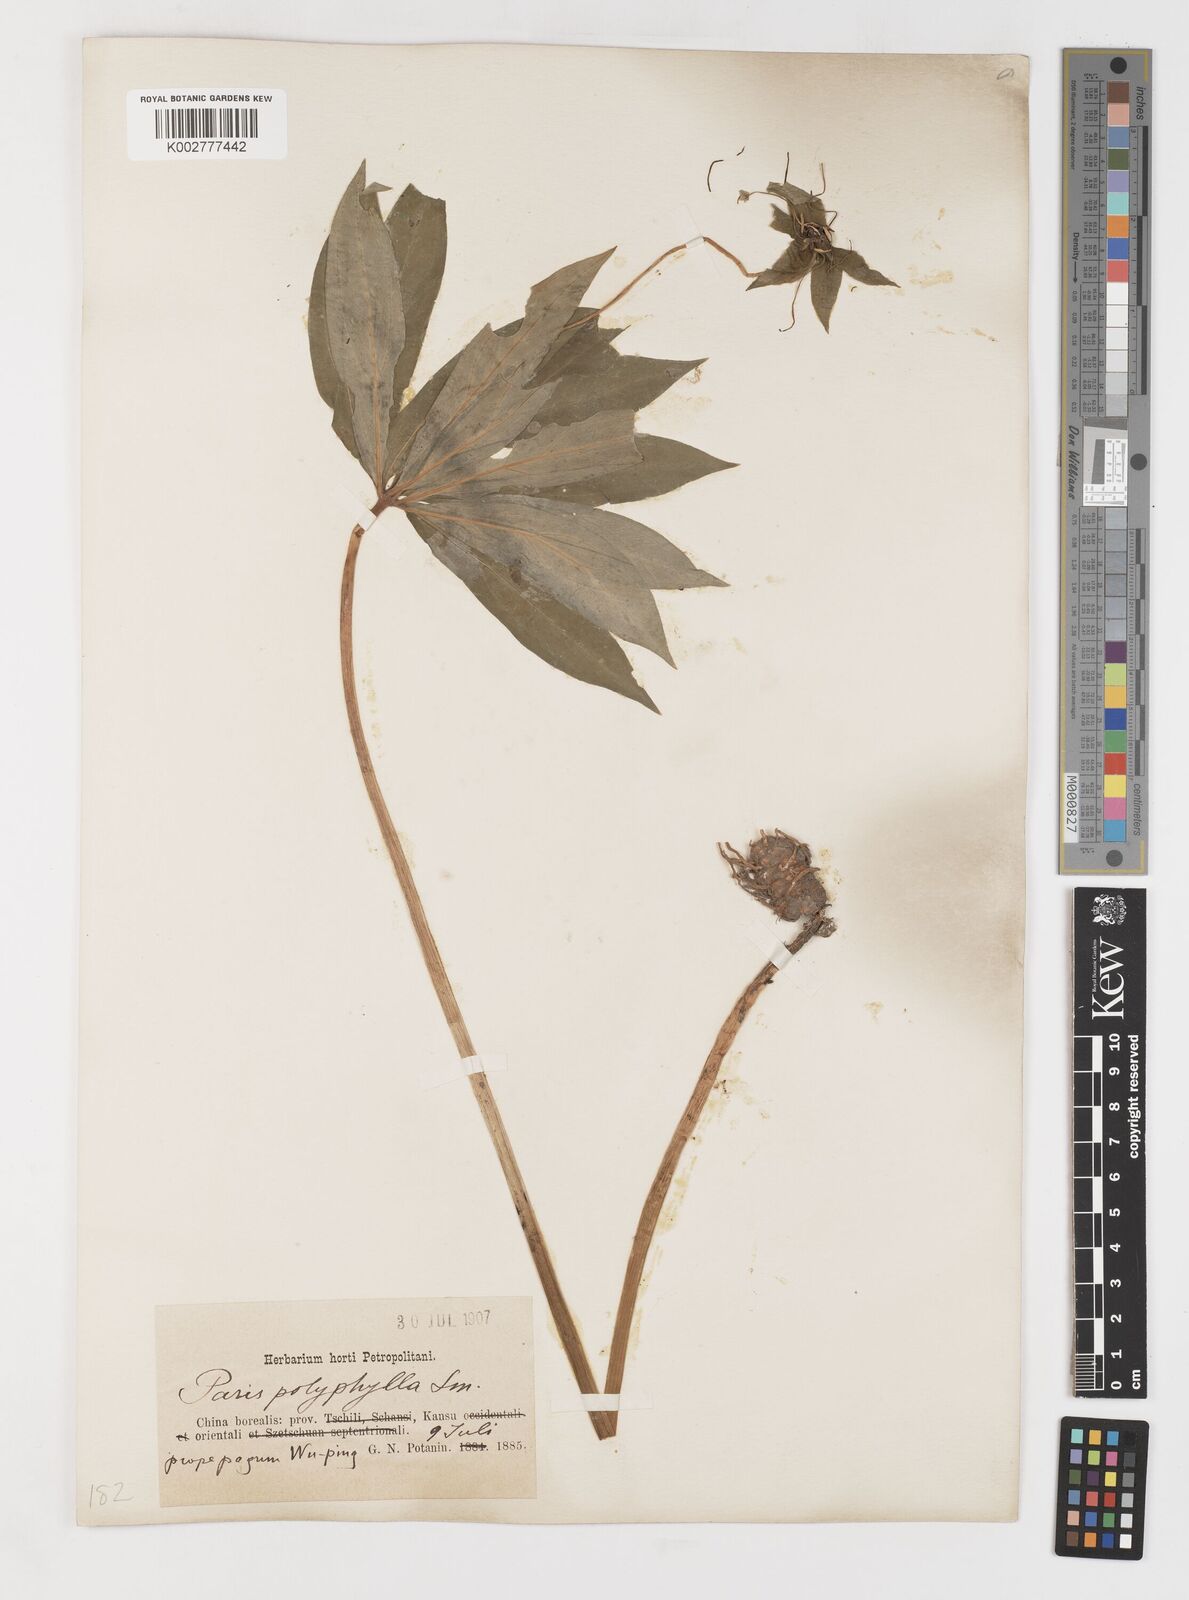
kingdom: Plantae
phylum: Tracheophyta
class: Liliopsida
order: Liliales
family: Melanthiaceae
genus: Paris
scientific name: Paris polyphylla
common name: Love apple
